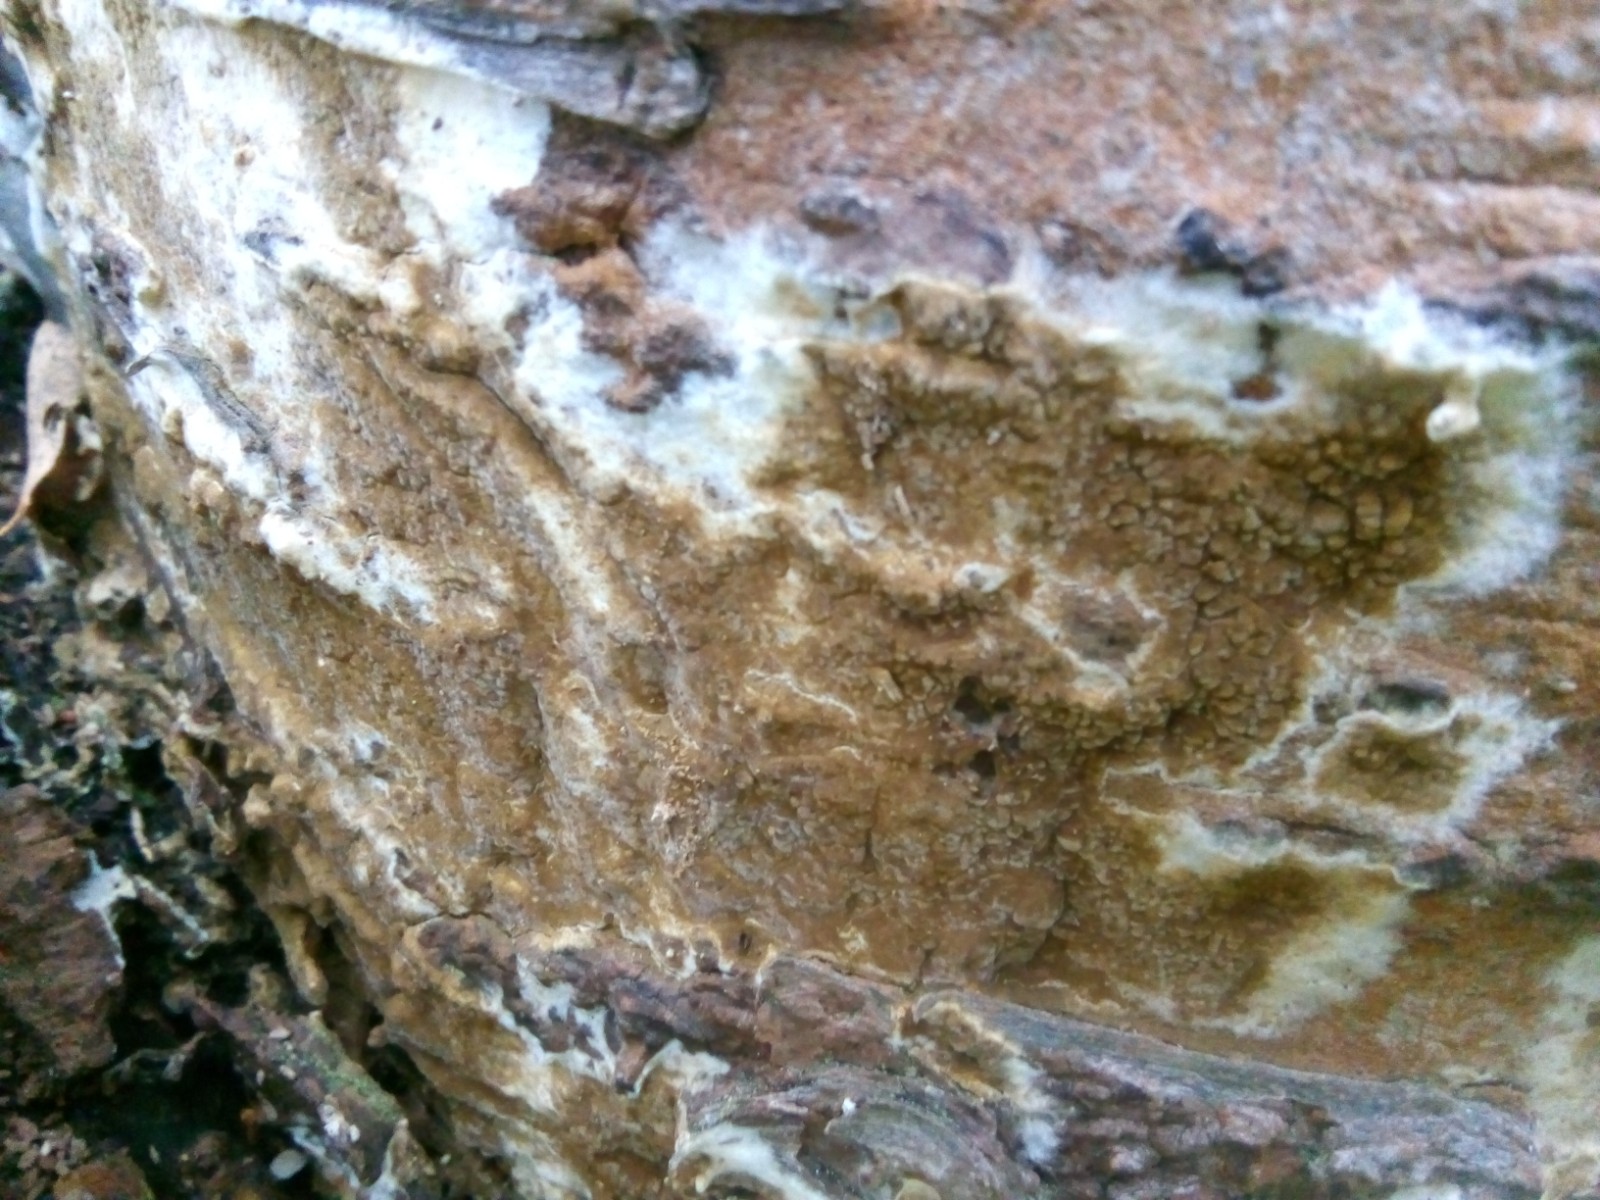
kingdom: Fungi
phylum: Basidiomycota
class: Agaricomycetes
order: Boletales
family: Coniophoraceae
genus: Coniophora
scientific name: Coniophora puteana
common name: gul tømmersvamp
